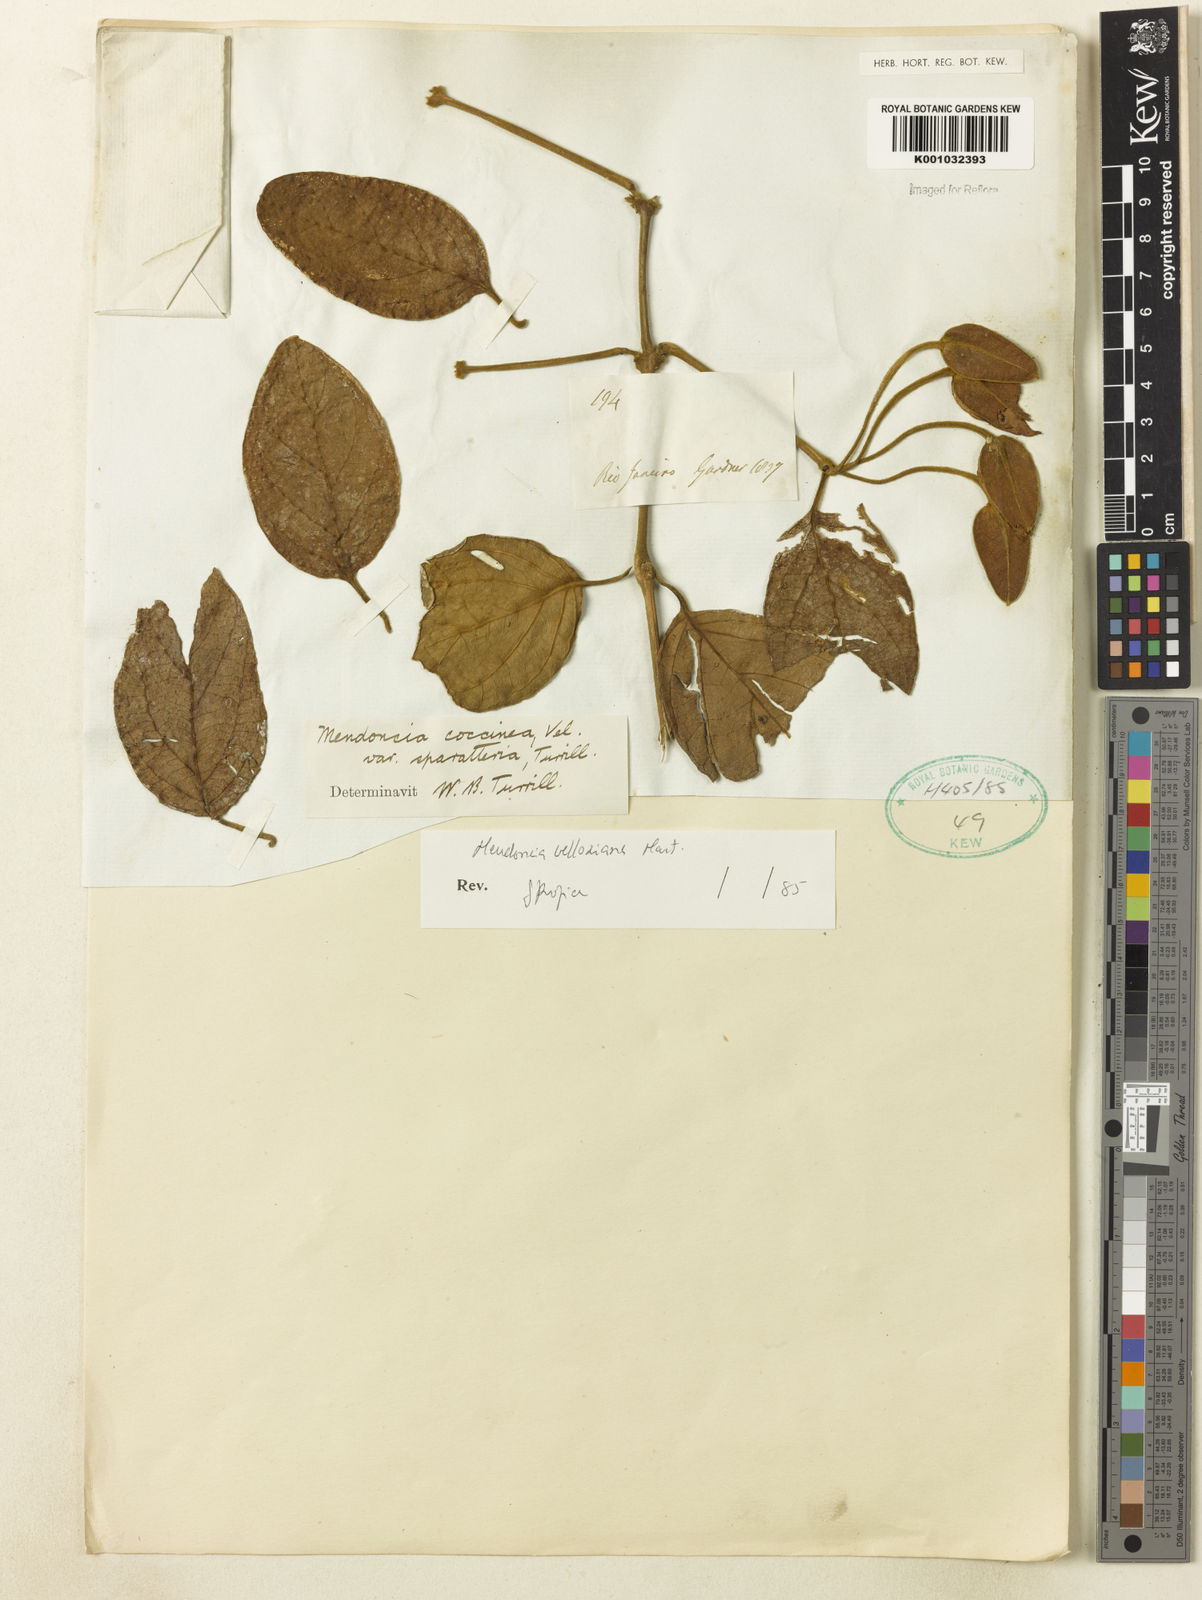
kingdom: Plantae
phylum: Tracheophyta
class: Magnoliopsida
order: Lamiales
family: Acanthaceae
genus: Mendoncia
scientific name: Mendoncia velloziana
